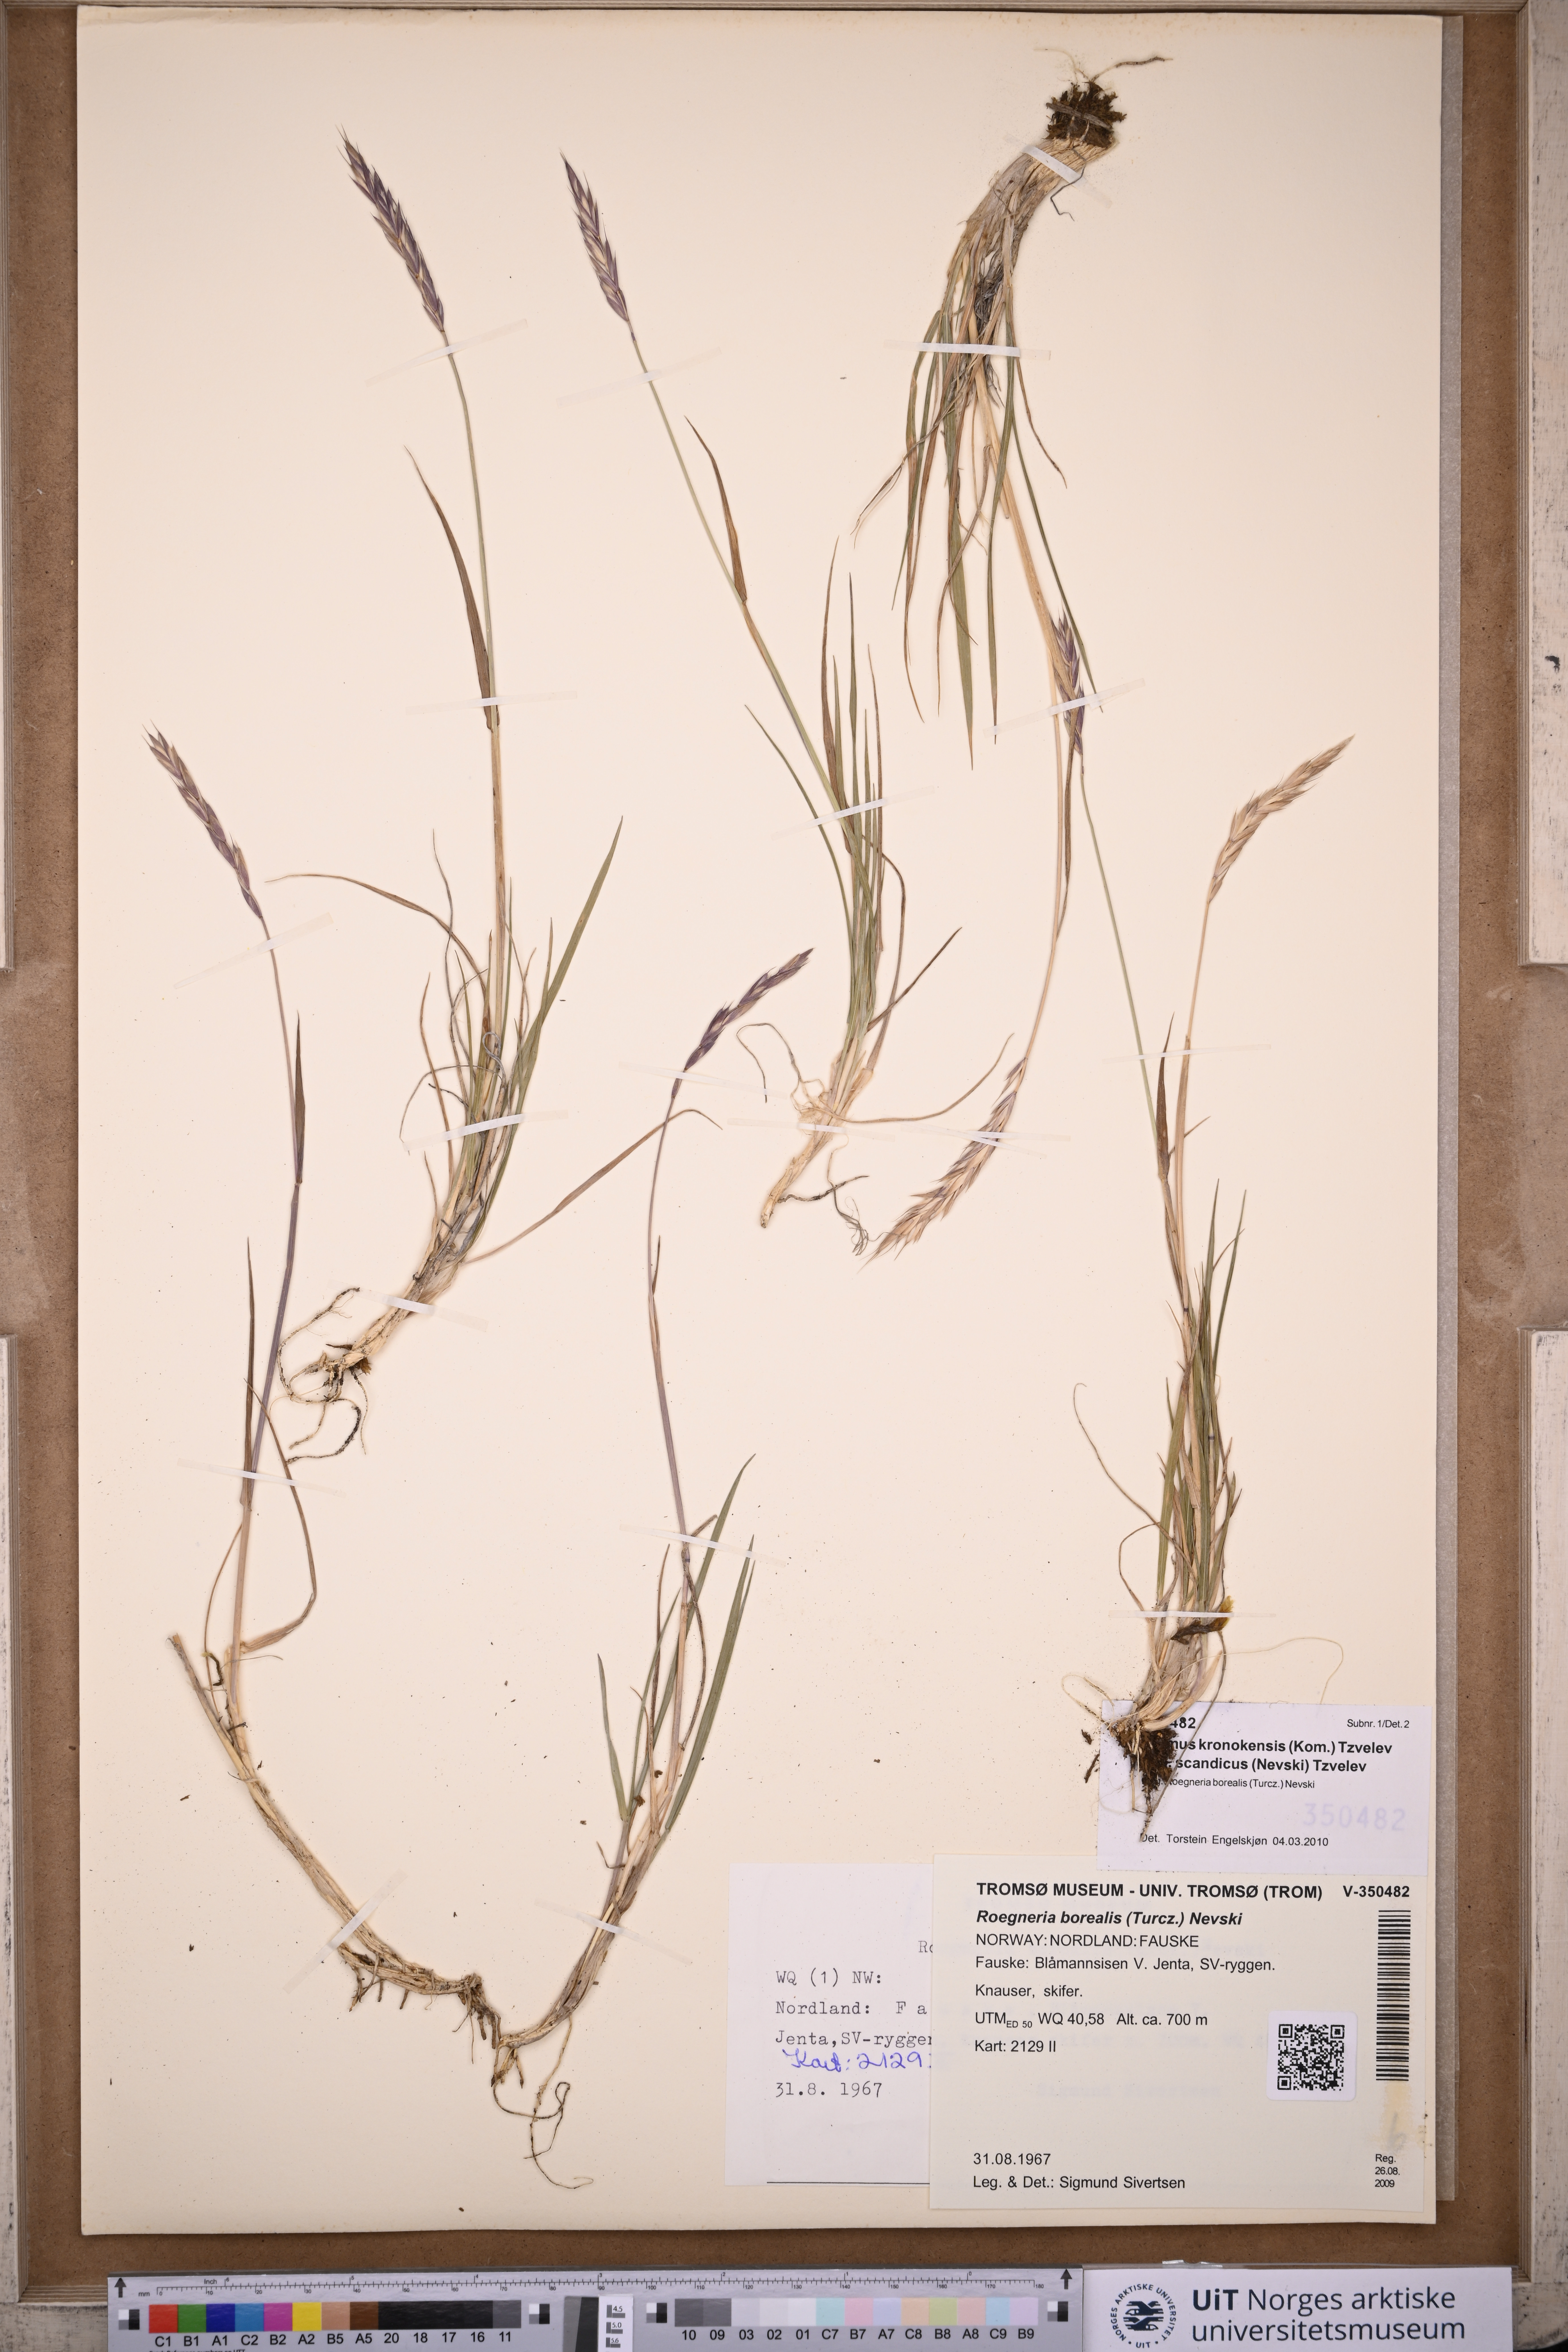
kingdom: Plantae
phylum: Tracheophyta
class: Liliopsida
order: Poales
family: Poaceae
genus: Elymus
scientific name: Elymus macrourus
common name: Northern wheatgrass
